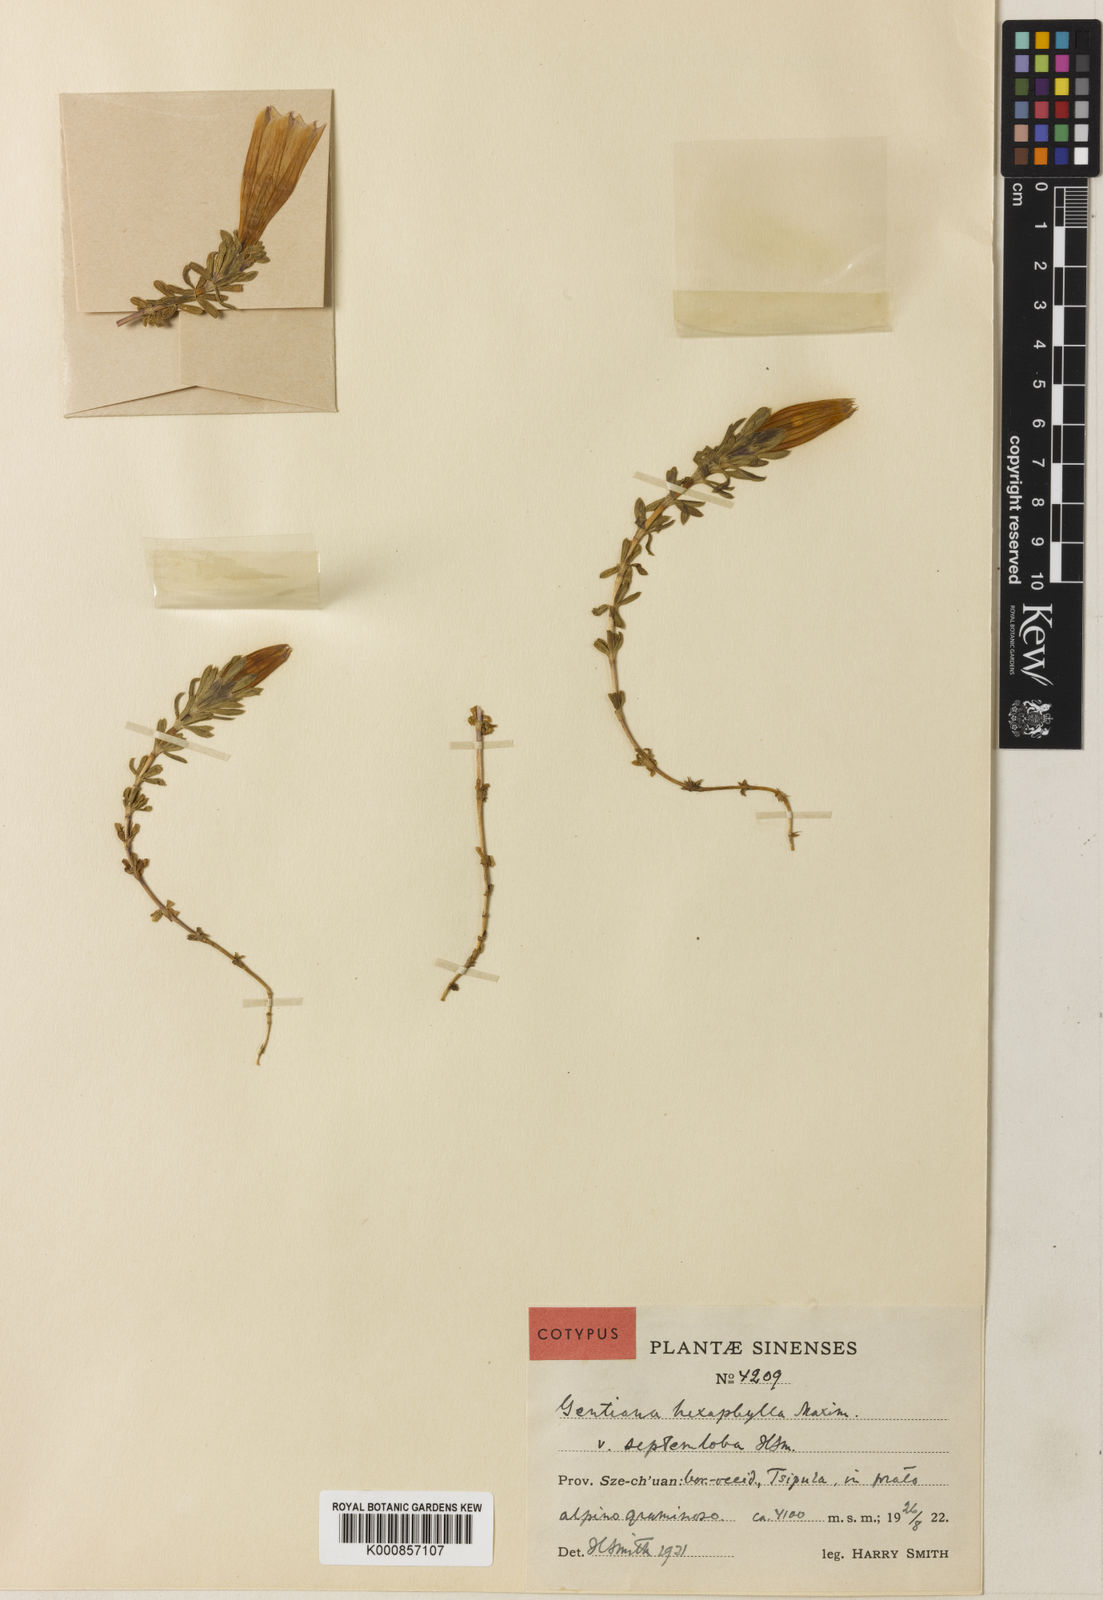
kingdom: Plantae
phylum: Tracheophyta
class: Magnoliopsida
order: Gentianales
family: Gentianaceae
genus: Gentiana
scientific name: Gentiana
